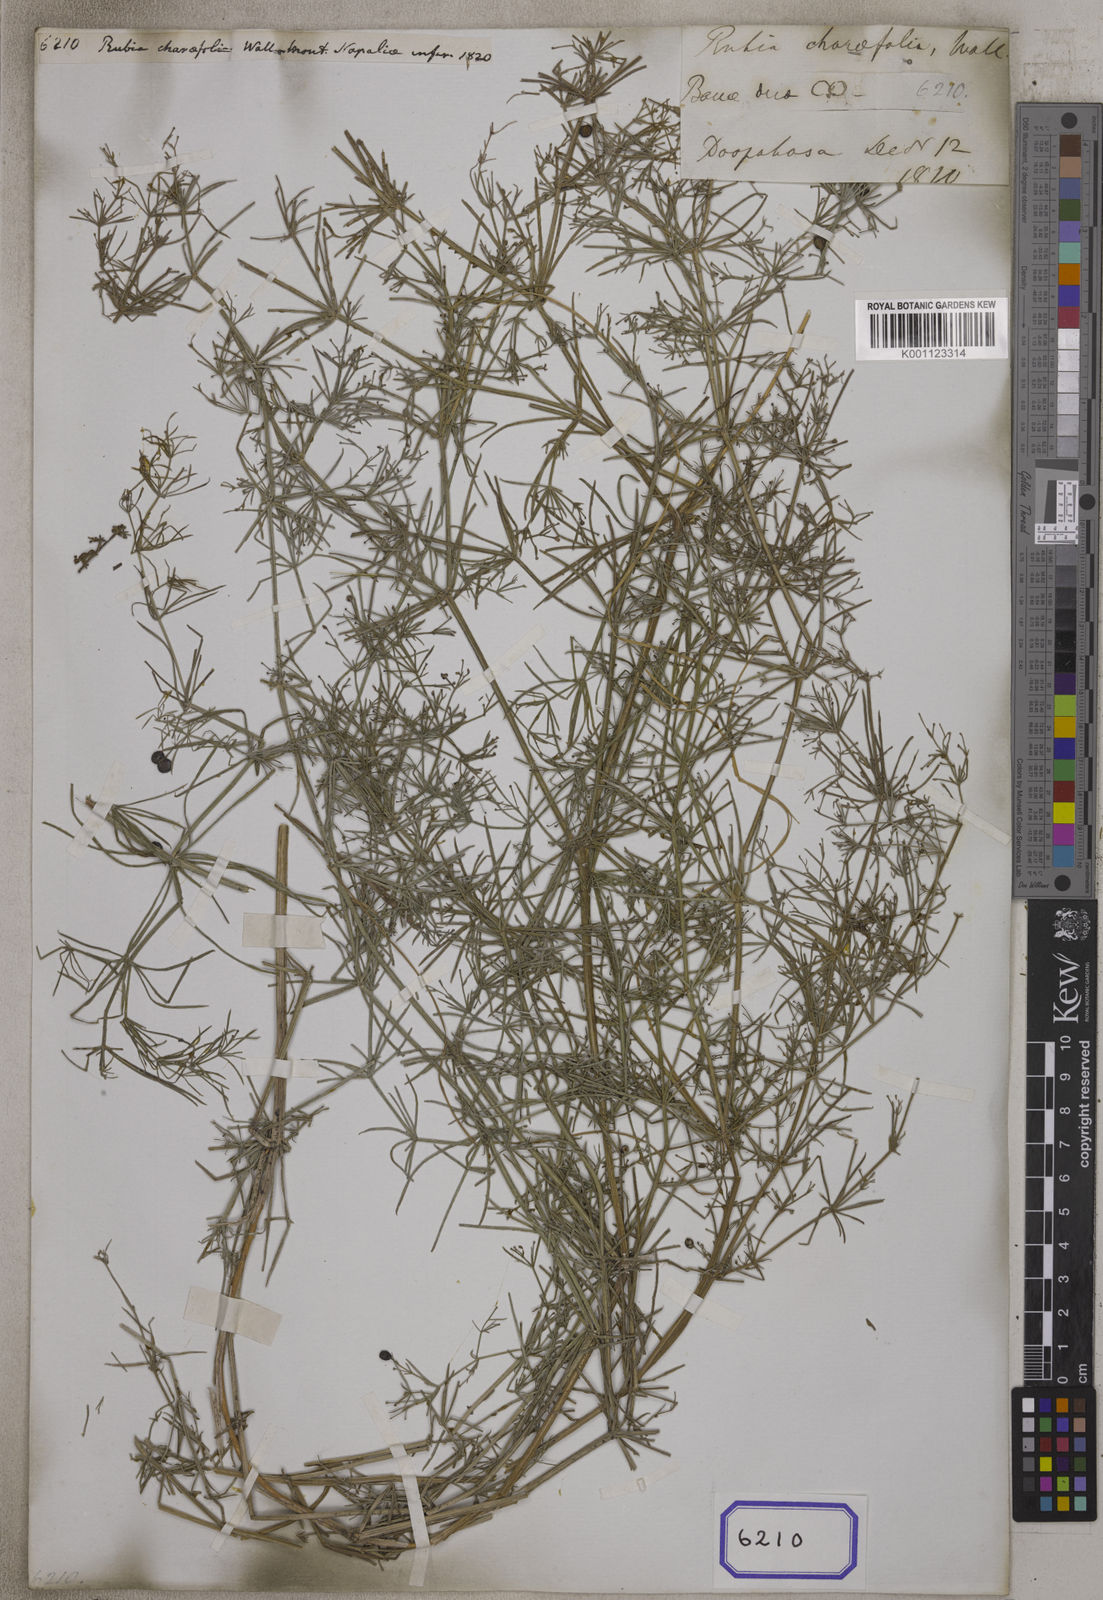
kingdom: Plantae
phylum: Tracheophyta
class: Magnoliopsida
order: Gentianales
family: Rubiaceae
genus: Rubia
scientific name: Rubia
